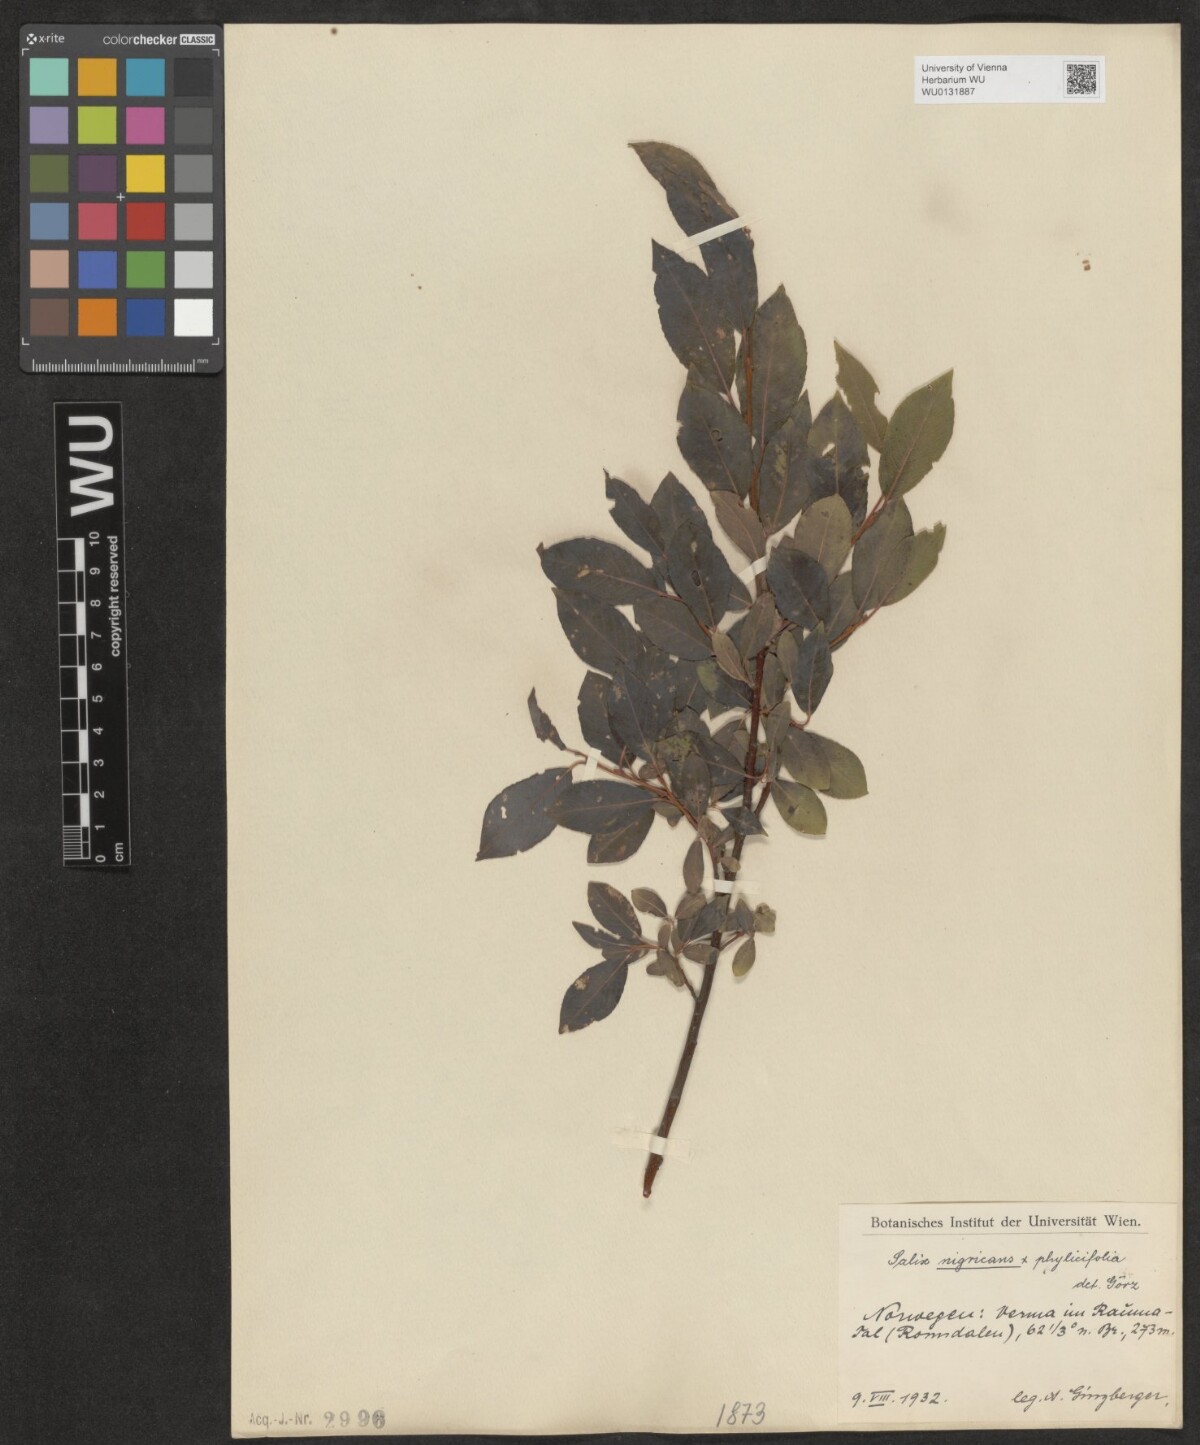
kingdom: Plantae
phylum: Tracheophyta
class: Magnoliopsida
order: Malpighiales
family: Salicaceae
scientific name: Salicaceae
